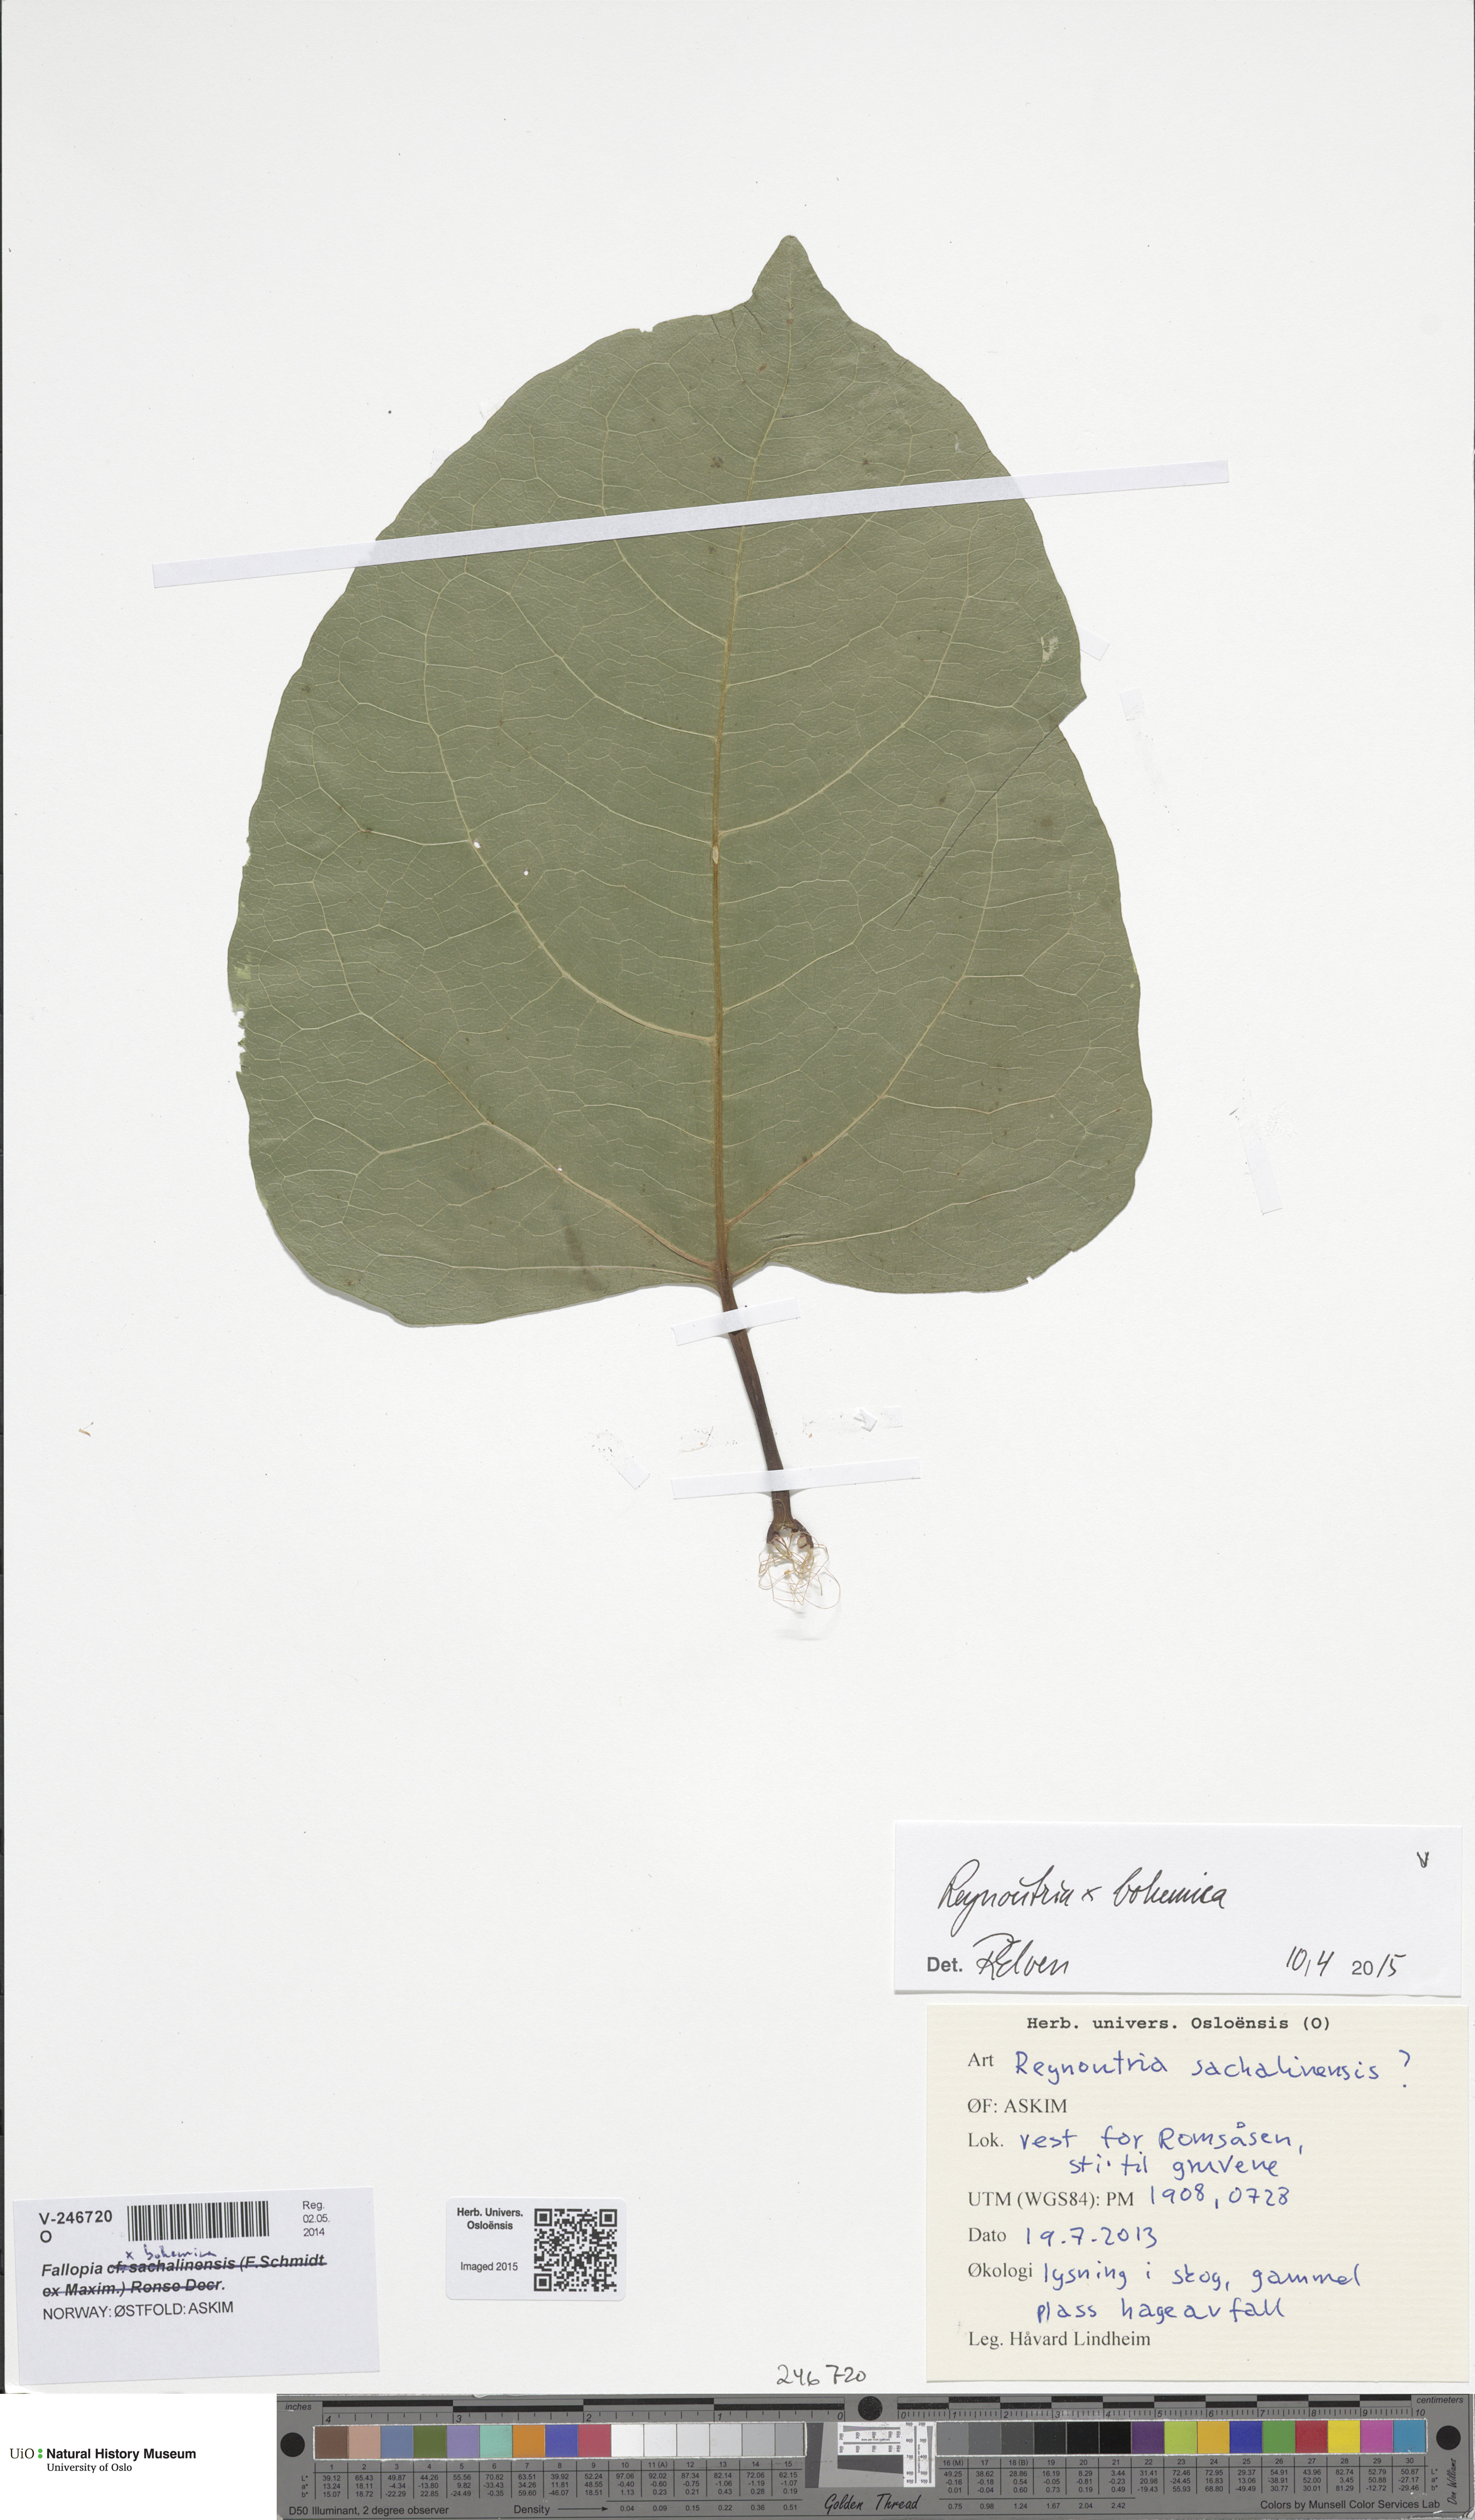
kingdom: Plantae
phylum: Tracheophyta
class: Magnoliopsida
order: Caryophyllales
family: Polygonaceae
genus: Reynoutria
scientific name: Reynoutria sachalinensis
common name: Giant knotweed
